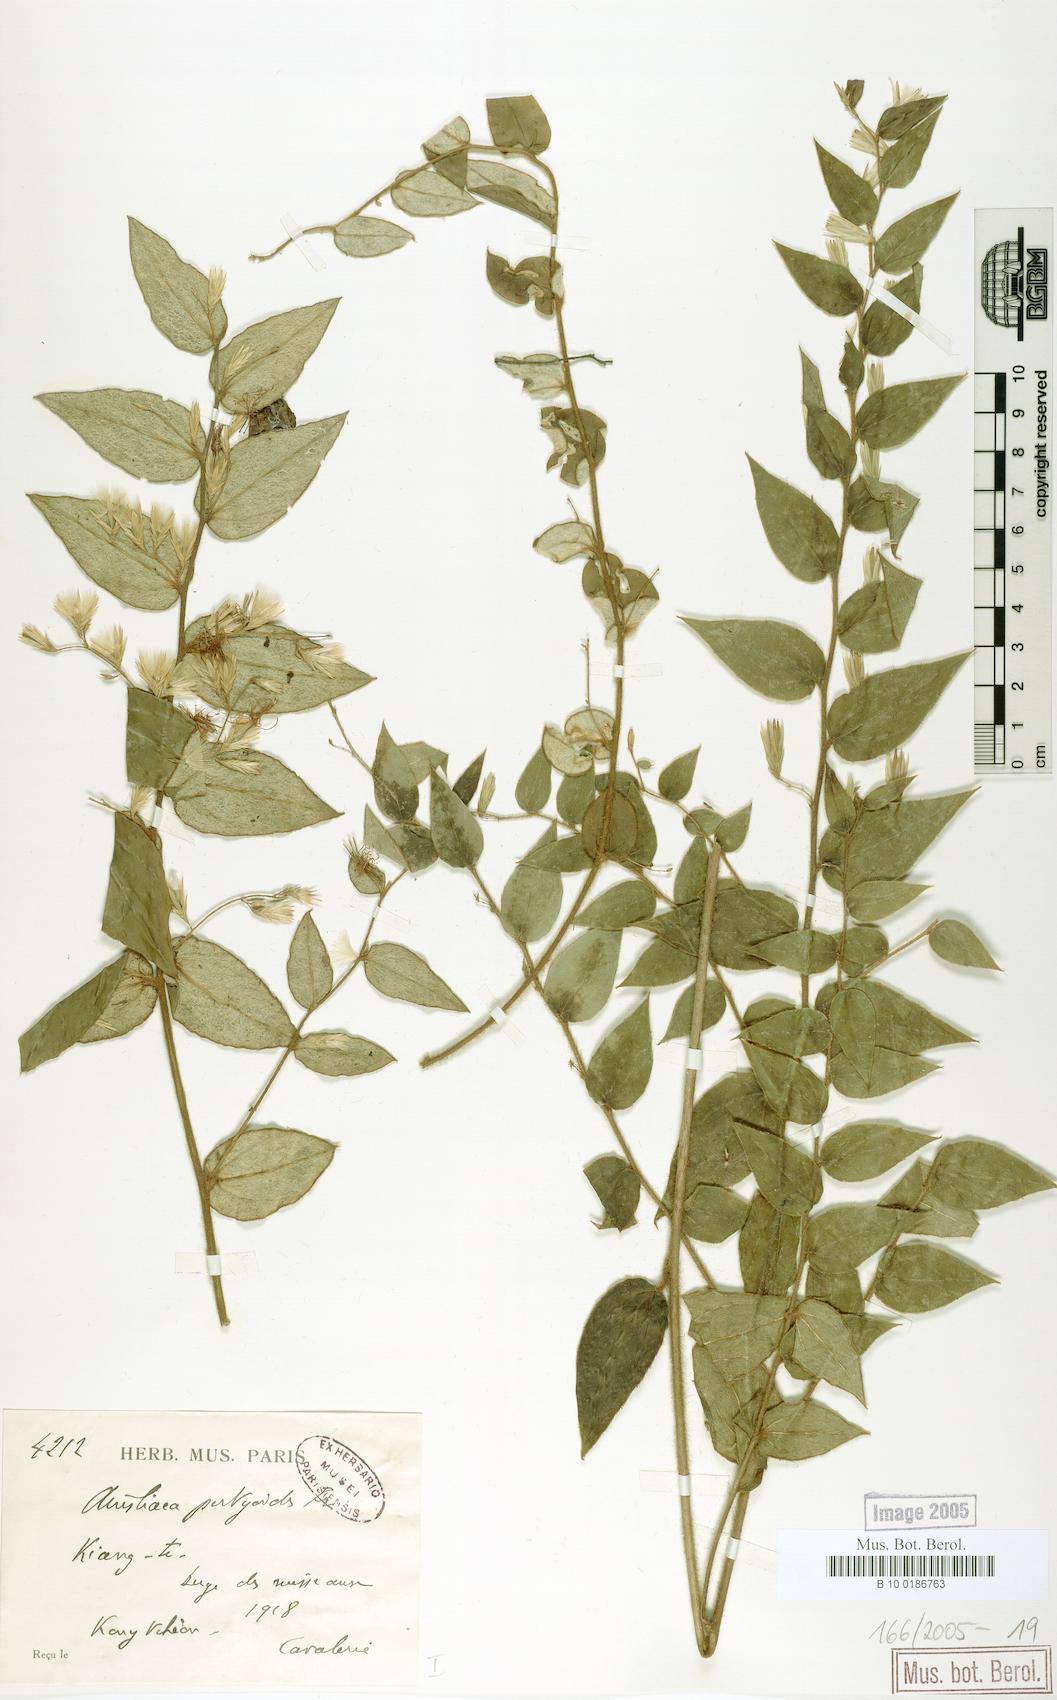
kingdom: Plantae
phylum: Tracheophyta
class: Magnoliopsida
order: Asterales
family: Asteraceae
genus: Ainsliaea
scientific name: Ainsliaea pertyoides
